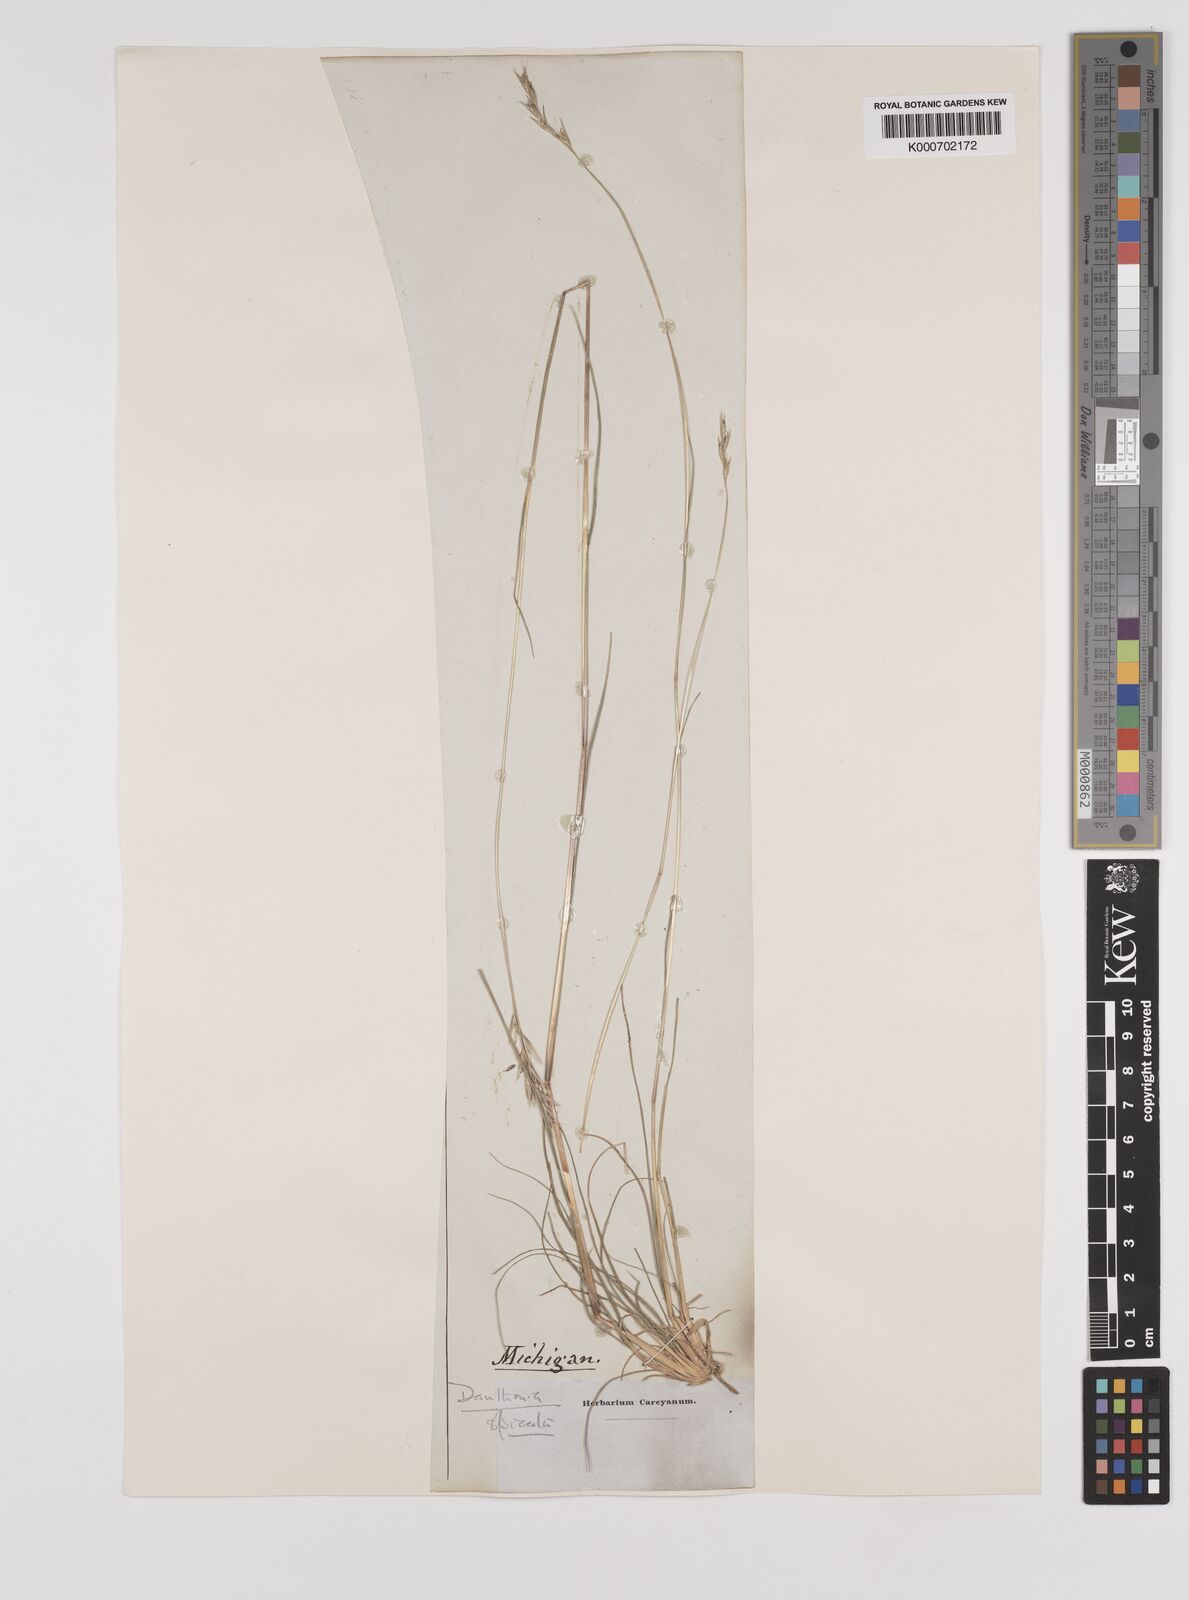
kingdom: Plantae
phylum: Tracheophyta
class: Liliopsida
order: Poales
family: Poaceae
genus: Danthonia
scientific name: Danthonia spicata
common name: Common wild oatgrass
